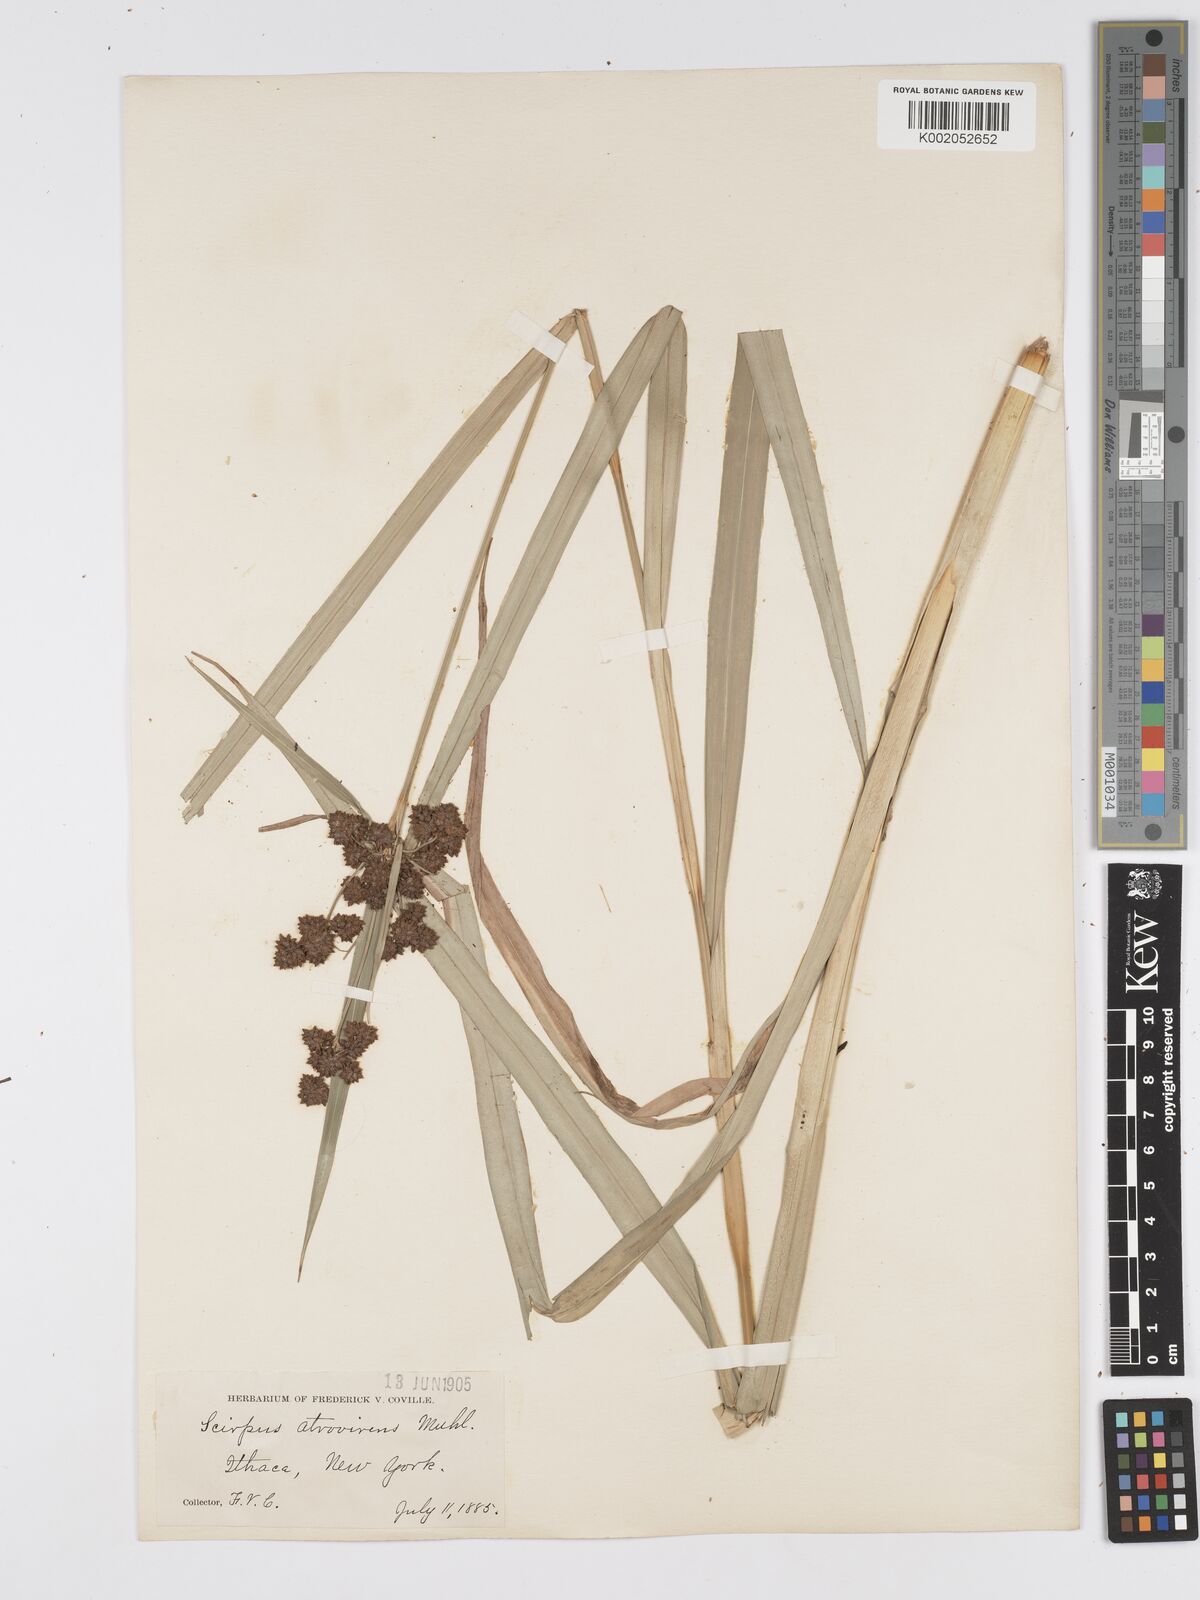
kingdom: Plantae
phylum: Tracheophyta
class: Liliopsida
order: Poales
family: Cyperaceae
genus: Scirpus
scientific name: Scirpus atrovirens
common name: Black bulrush
